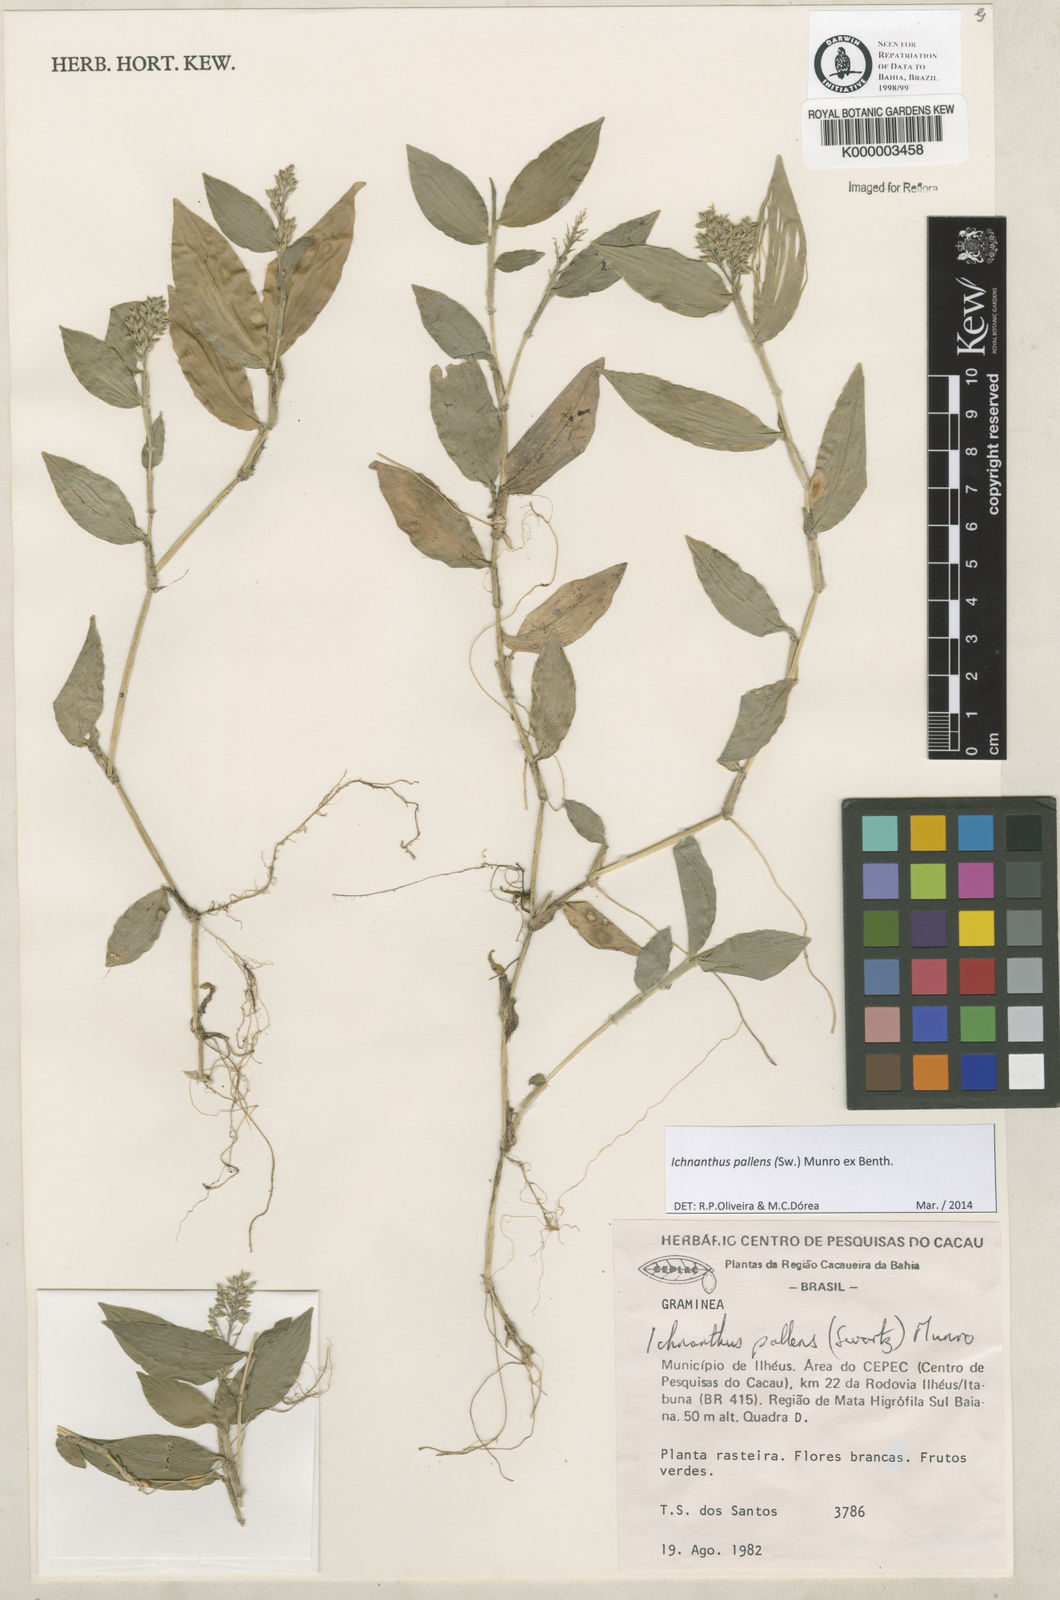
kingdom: Plantae
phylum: Tracheophyta
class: Liliopsida
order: Poales
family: Poaceae
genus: Ichnanthus
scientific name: Ichnanthus
